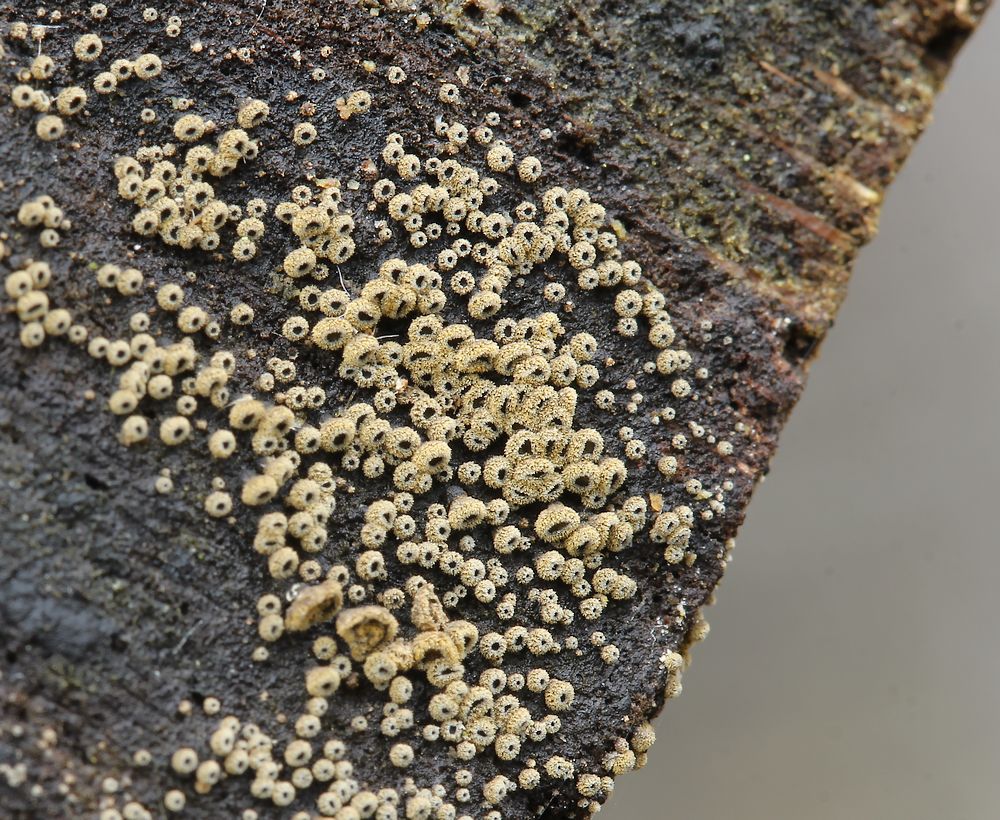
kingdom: Fungi
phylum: Ascomycota
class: Leotiomycetes
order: Helotiales
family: Lachnaceae
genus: Neodasyscypha
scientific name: Neodasyscypha cerina
